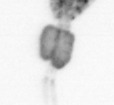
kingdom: Animalia
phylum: Arthropoda
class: Copepoda
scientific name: Copepoda
